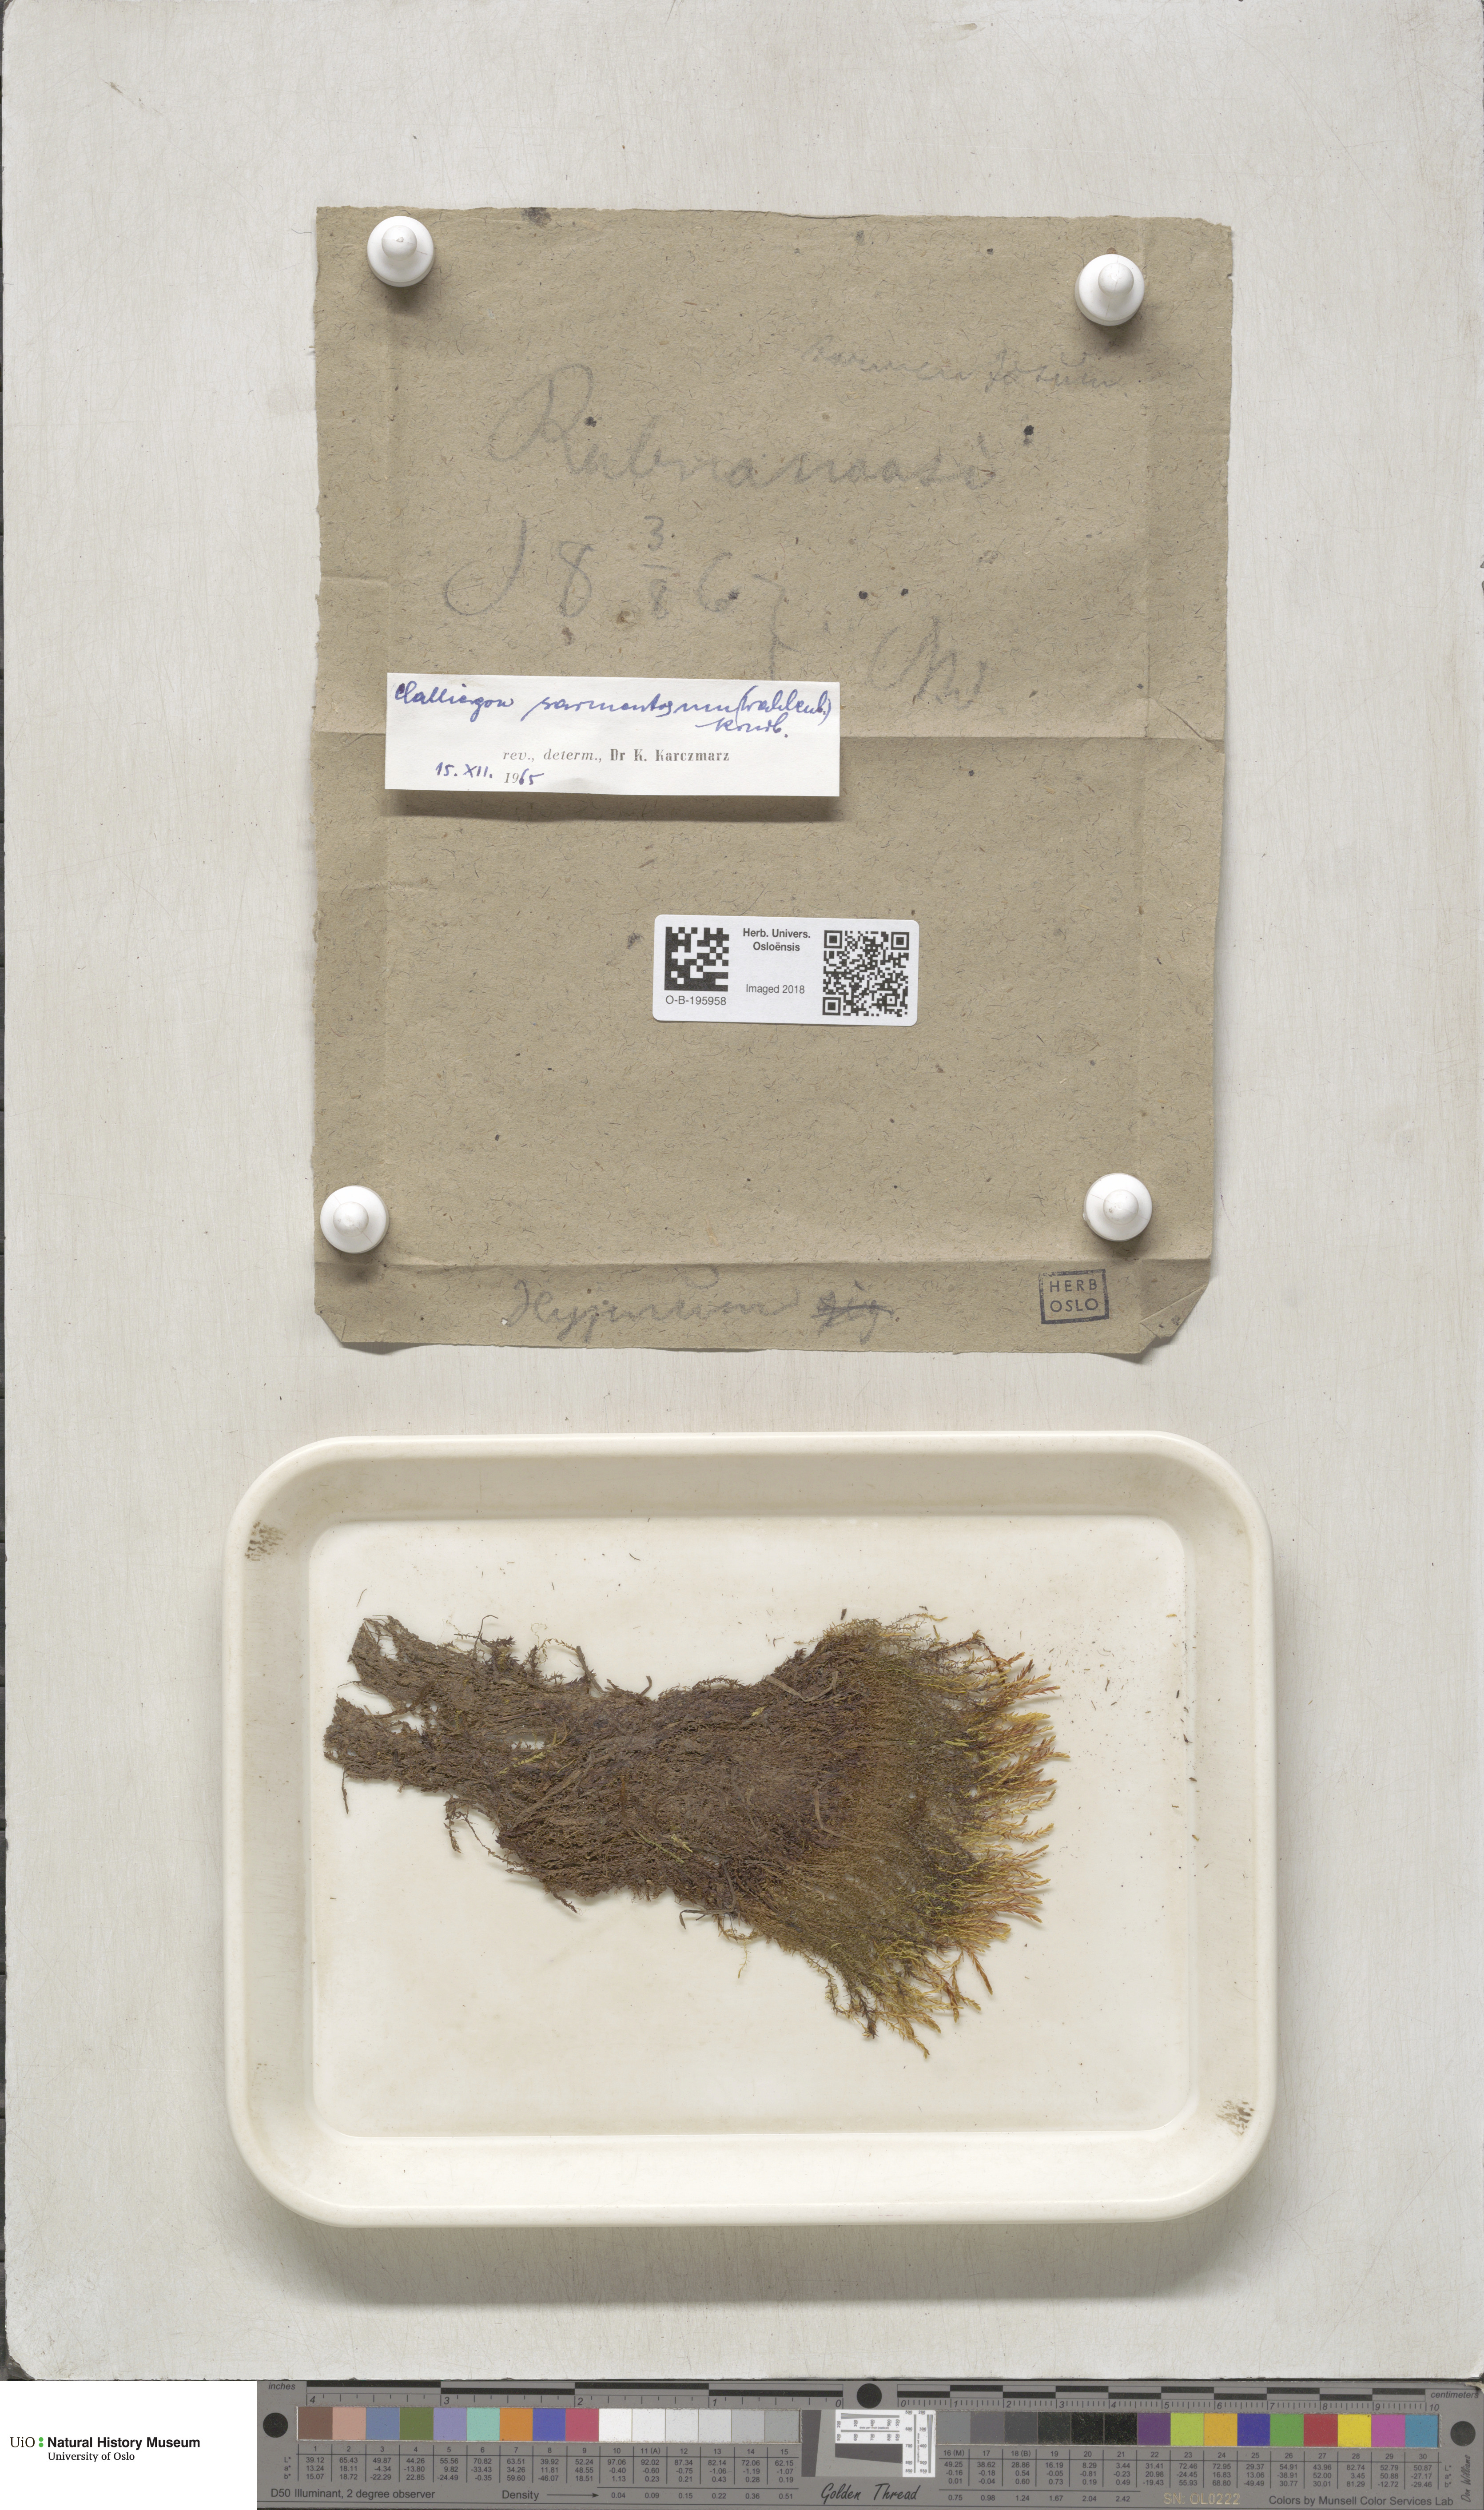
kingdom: Plantae
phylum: Bryophyta
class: Bryopsida
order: Hypnales
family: Calliergonaceae
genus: Sarmentypnum
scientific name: Sarmentypnum sarmentosum
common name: Twiggy spoon moss
